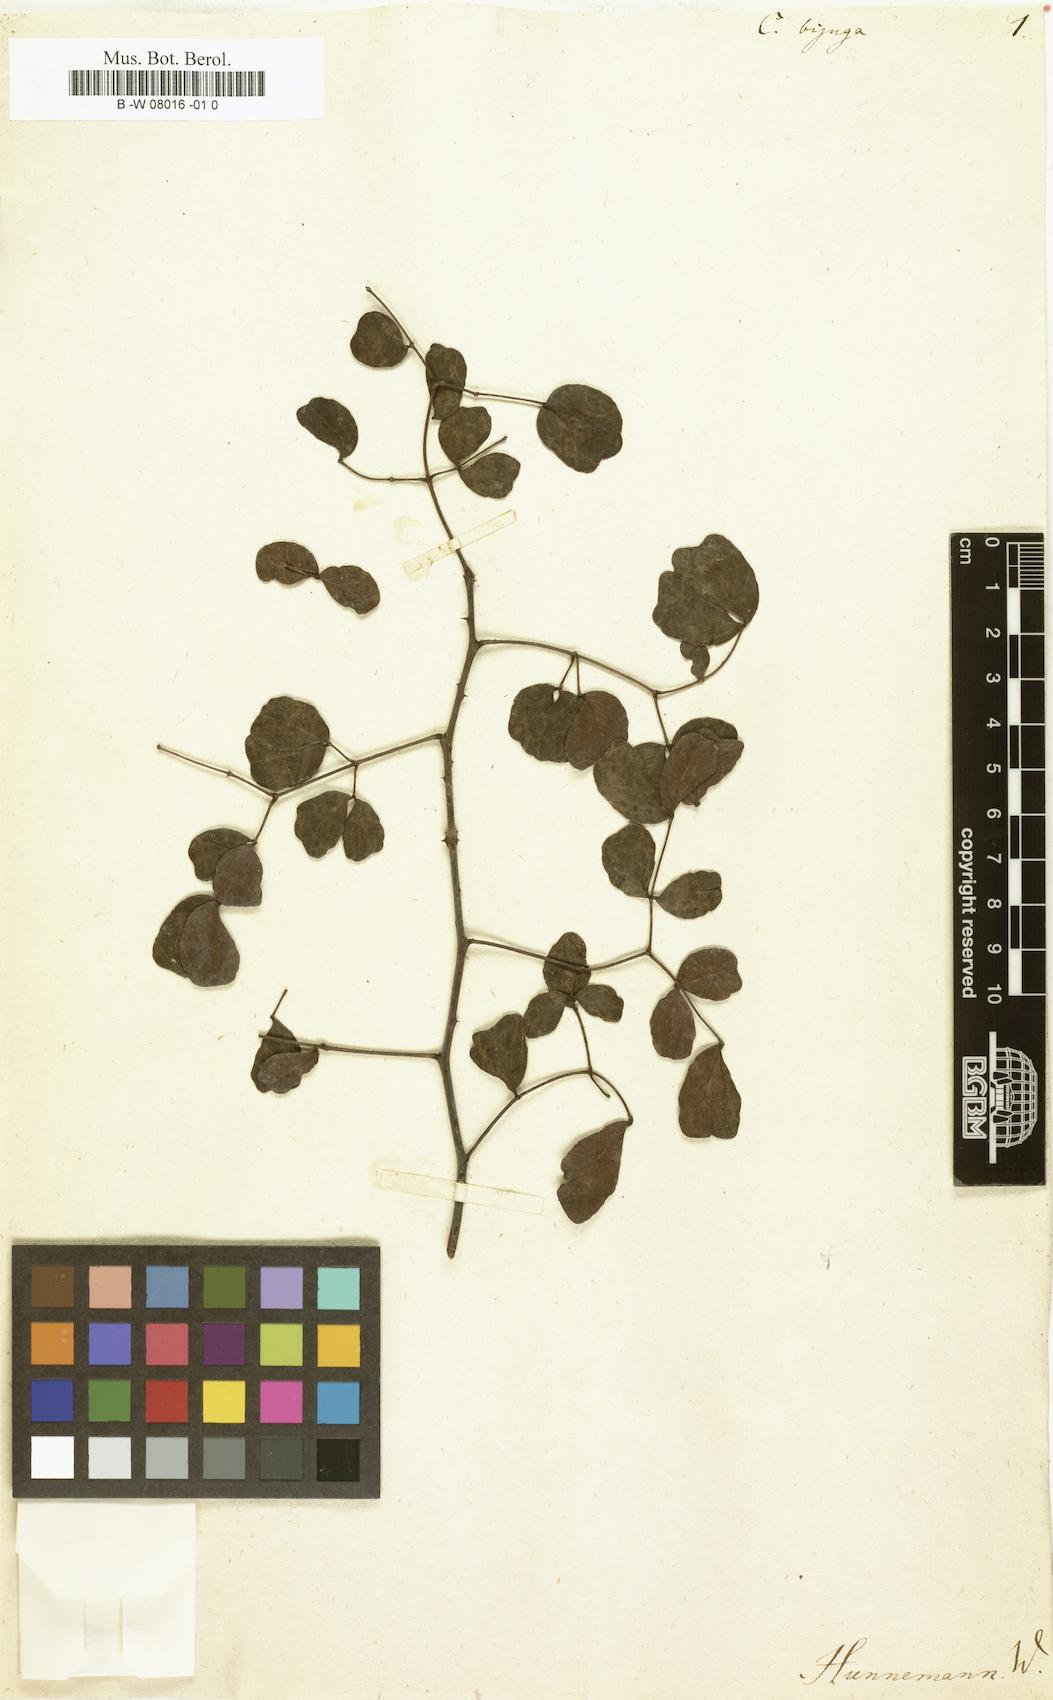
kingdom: Plantae
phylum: Tracheophyta
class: Magnoliopsida
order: Fabales
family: Fabaceae
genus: Tara
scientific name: Tara vesicaria
